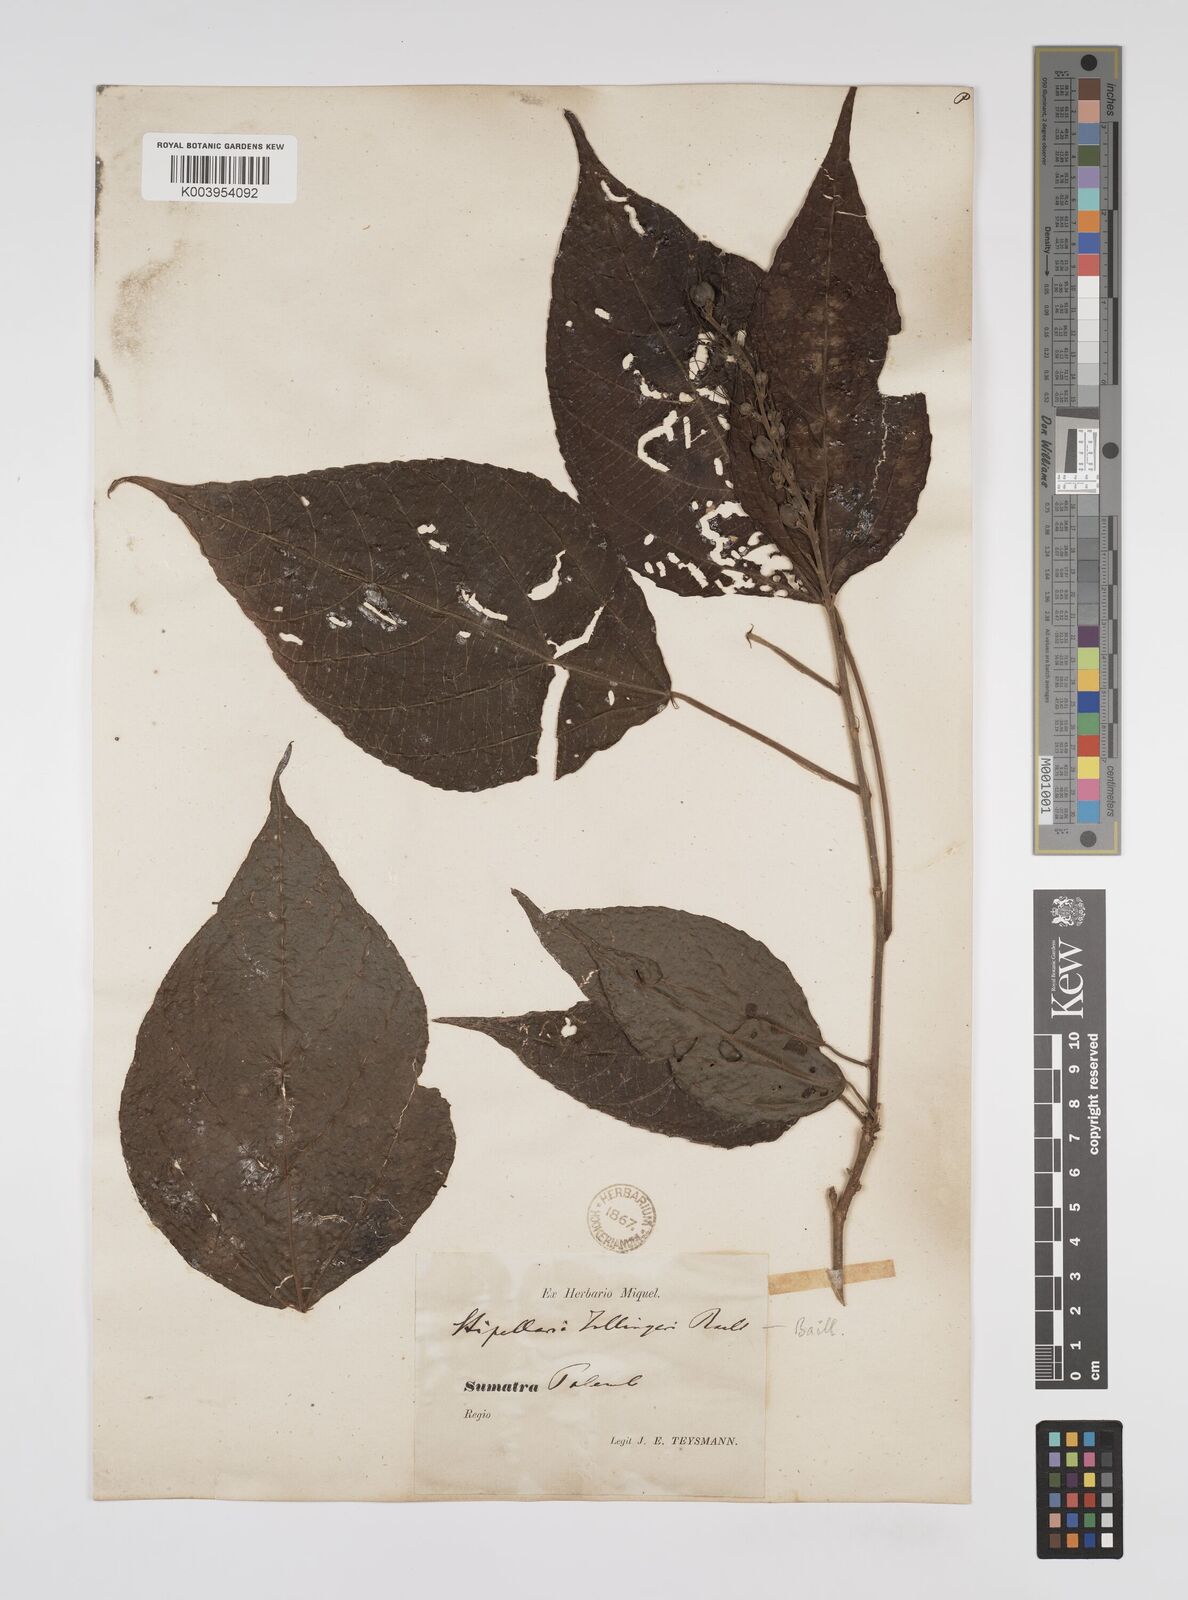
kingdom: Plantae
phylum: Tracheophyta
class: Magnoliopsida
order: Malpighiales
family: Euphorbiaceae
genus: Alchornea
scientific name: Alchornea tiliifolia
